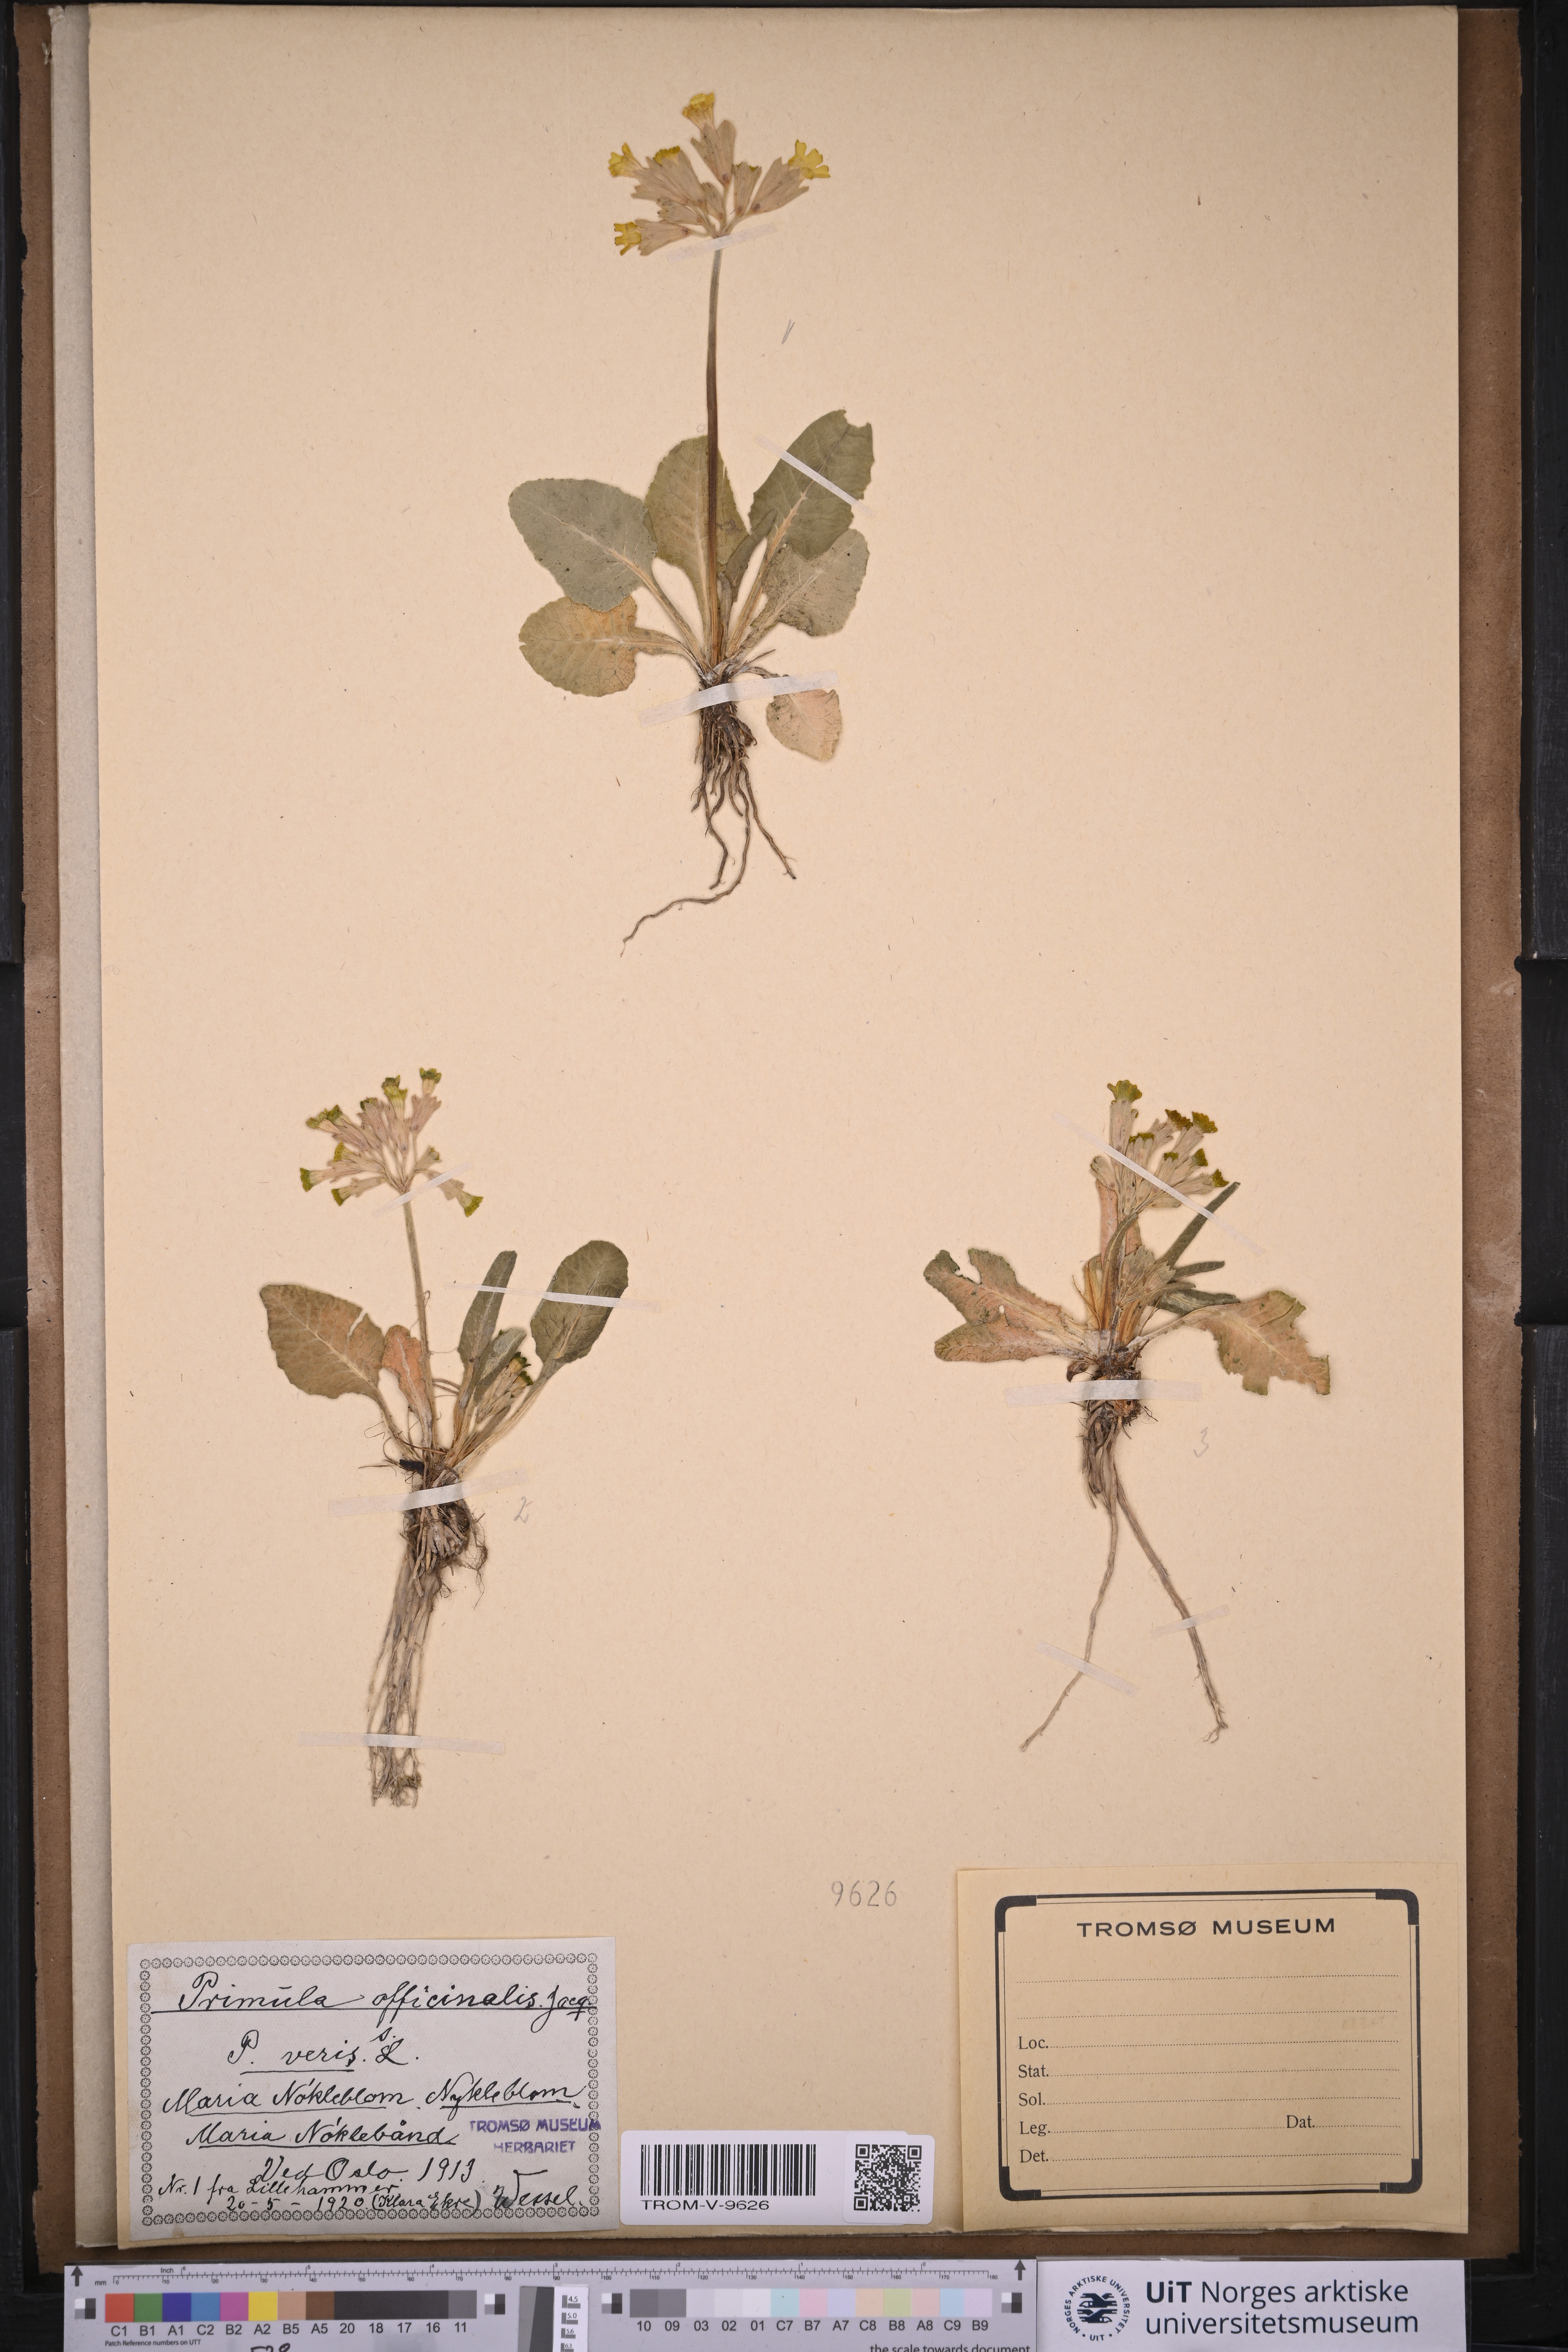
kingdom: Plantae
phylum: Tracheophyta
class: Magnoliopsida
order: Ericales
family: Primulaceae
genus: Primula
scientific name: Primula veris
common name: Cowslip
